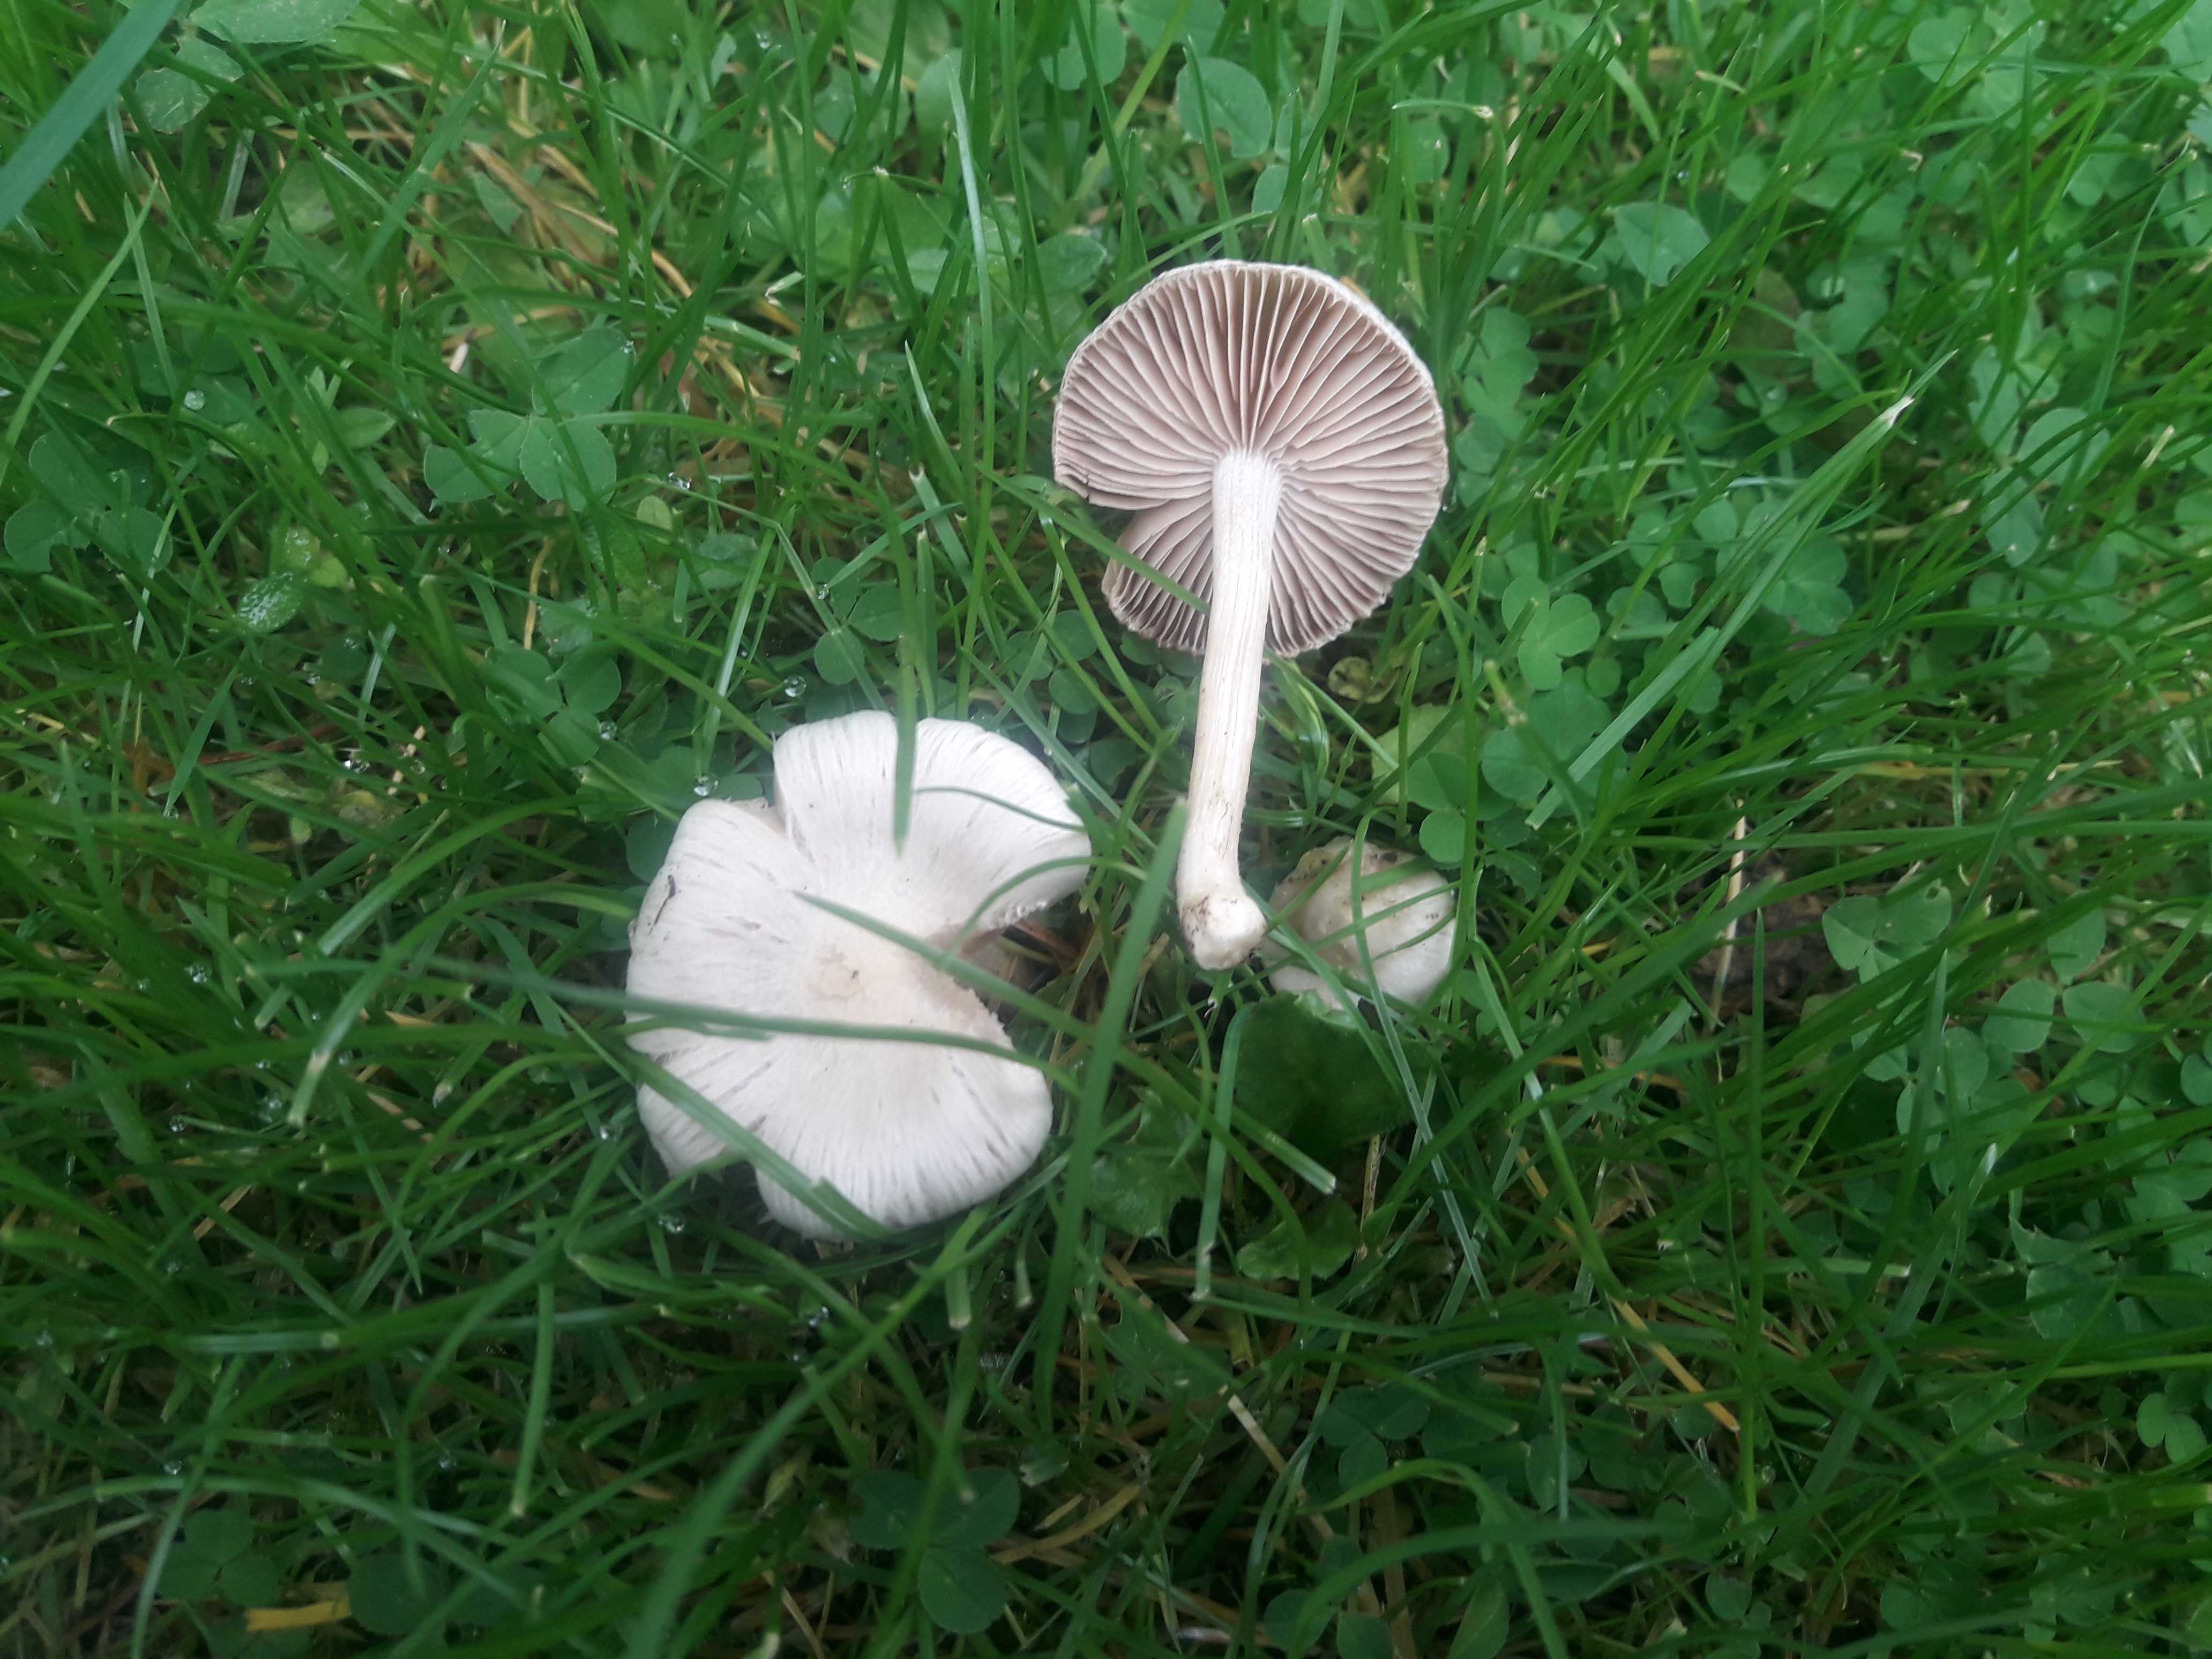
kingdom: Fungi
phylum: Basidiomycota
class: Agaricomycetes
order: Agaricales
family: Inocybaceae
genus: Inocybe
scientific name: Inocybe
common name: almindelig trævlhat
